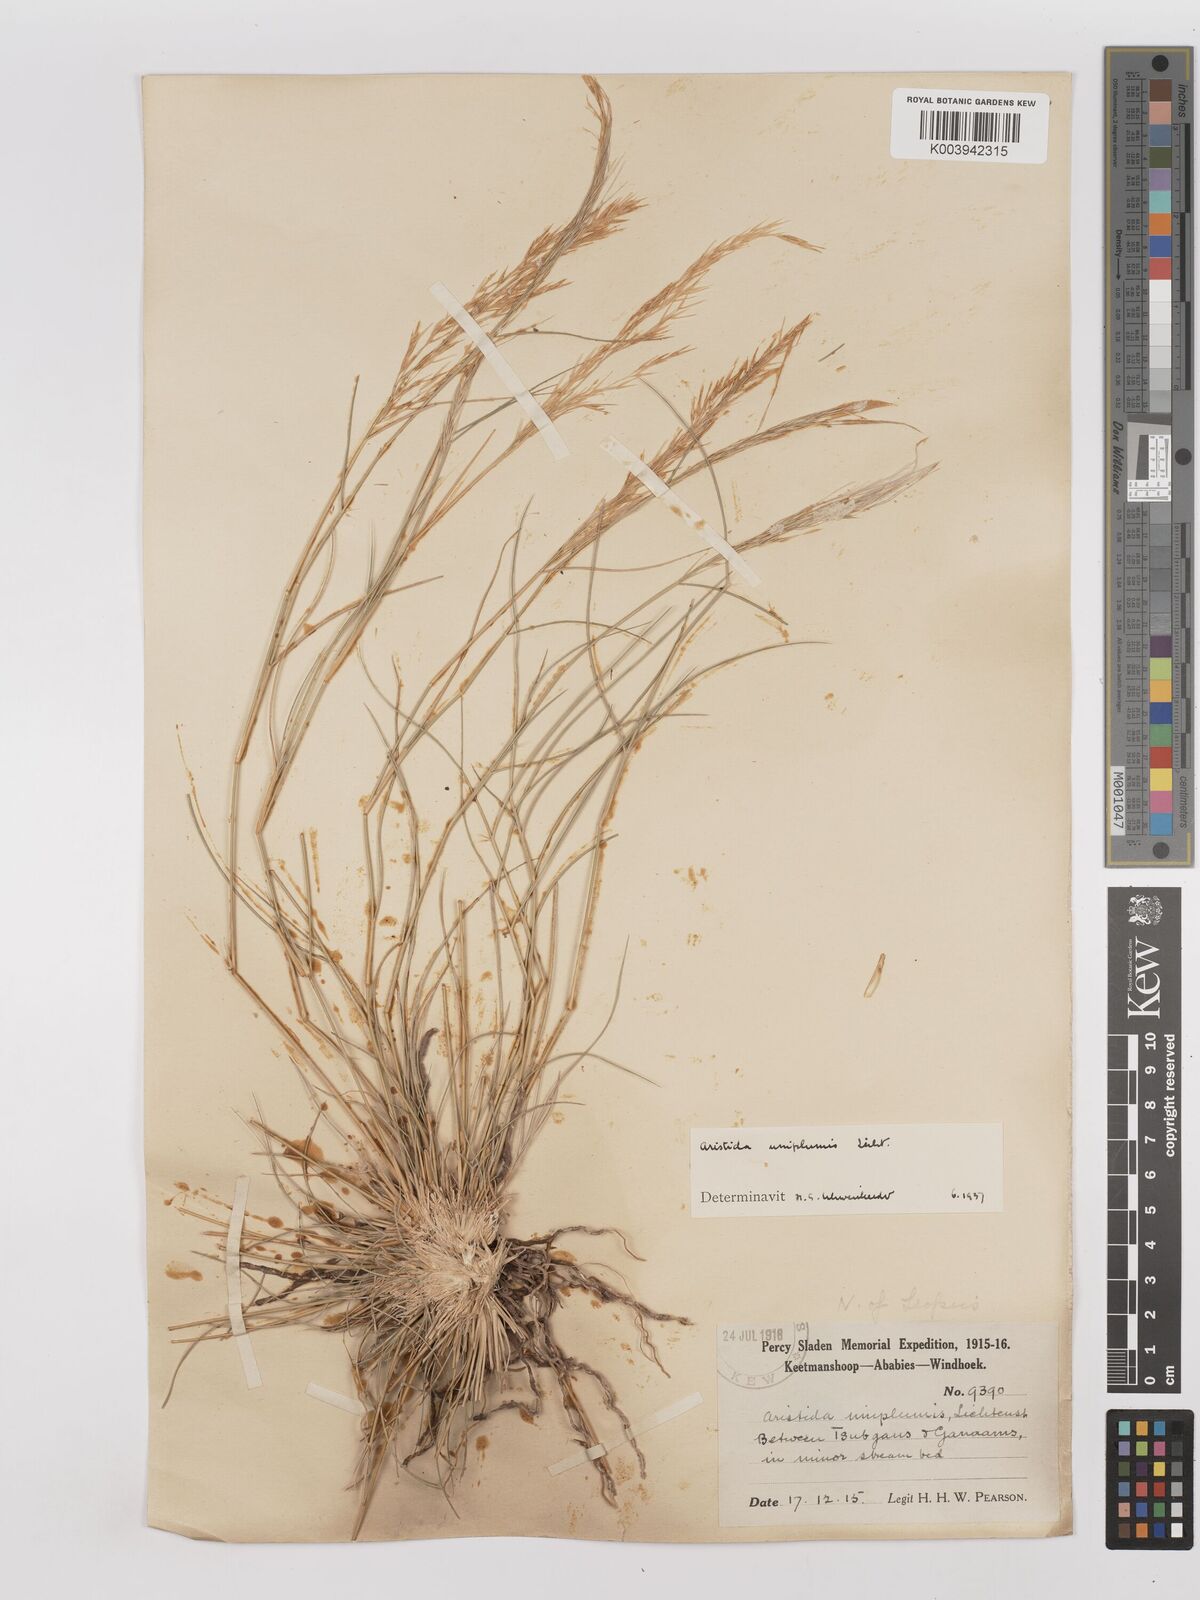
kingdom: Plantae
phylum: Tracheophyta
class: Liliopsida
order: Poales
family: Poaceae
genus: Stipagrostis
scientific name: Stipagrostis uniplumis
